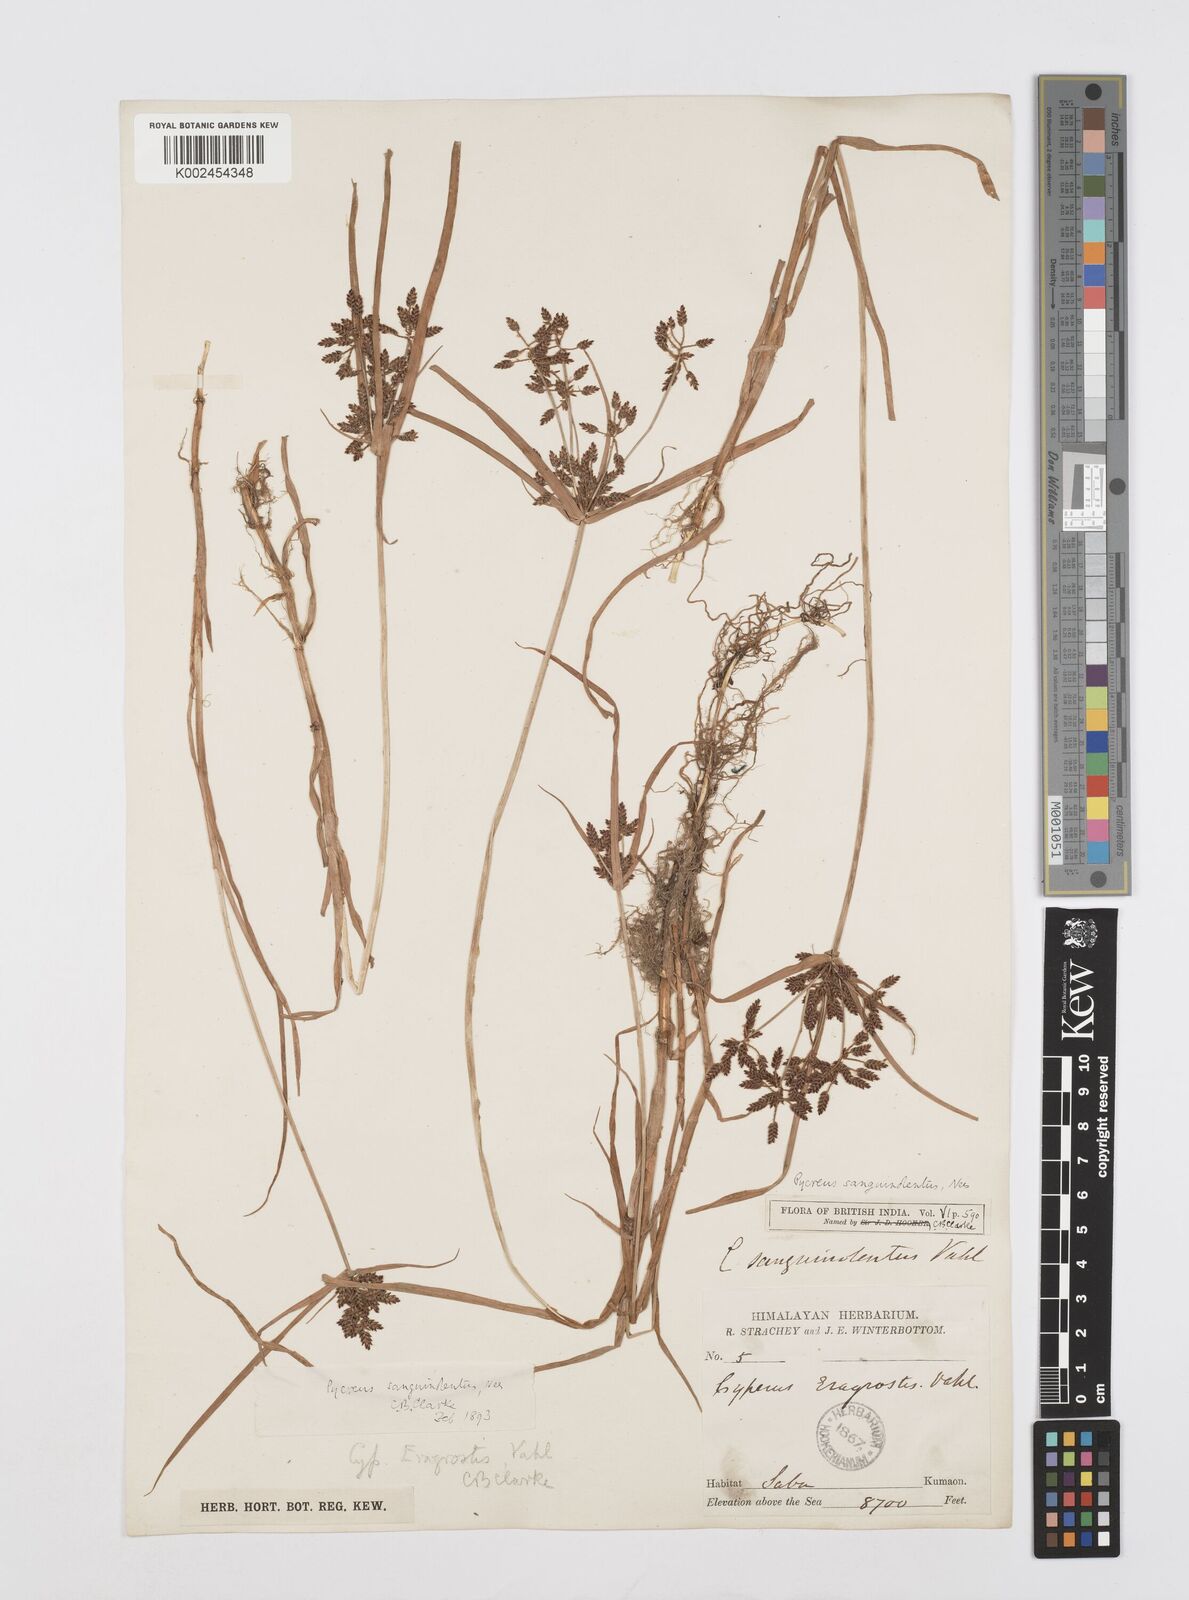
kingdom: Plantae
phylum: Tracheophyta
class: Liliopsida
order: Poales
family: Cyperaceae
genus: Cyperus
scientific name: Cyperus sanguinolentus
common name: Purpleglume flatsedge
